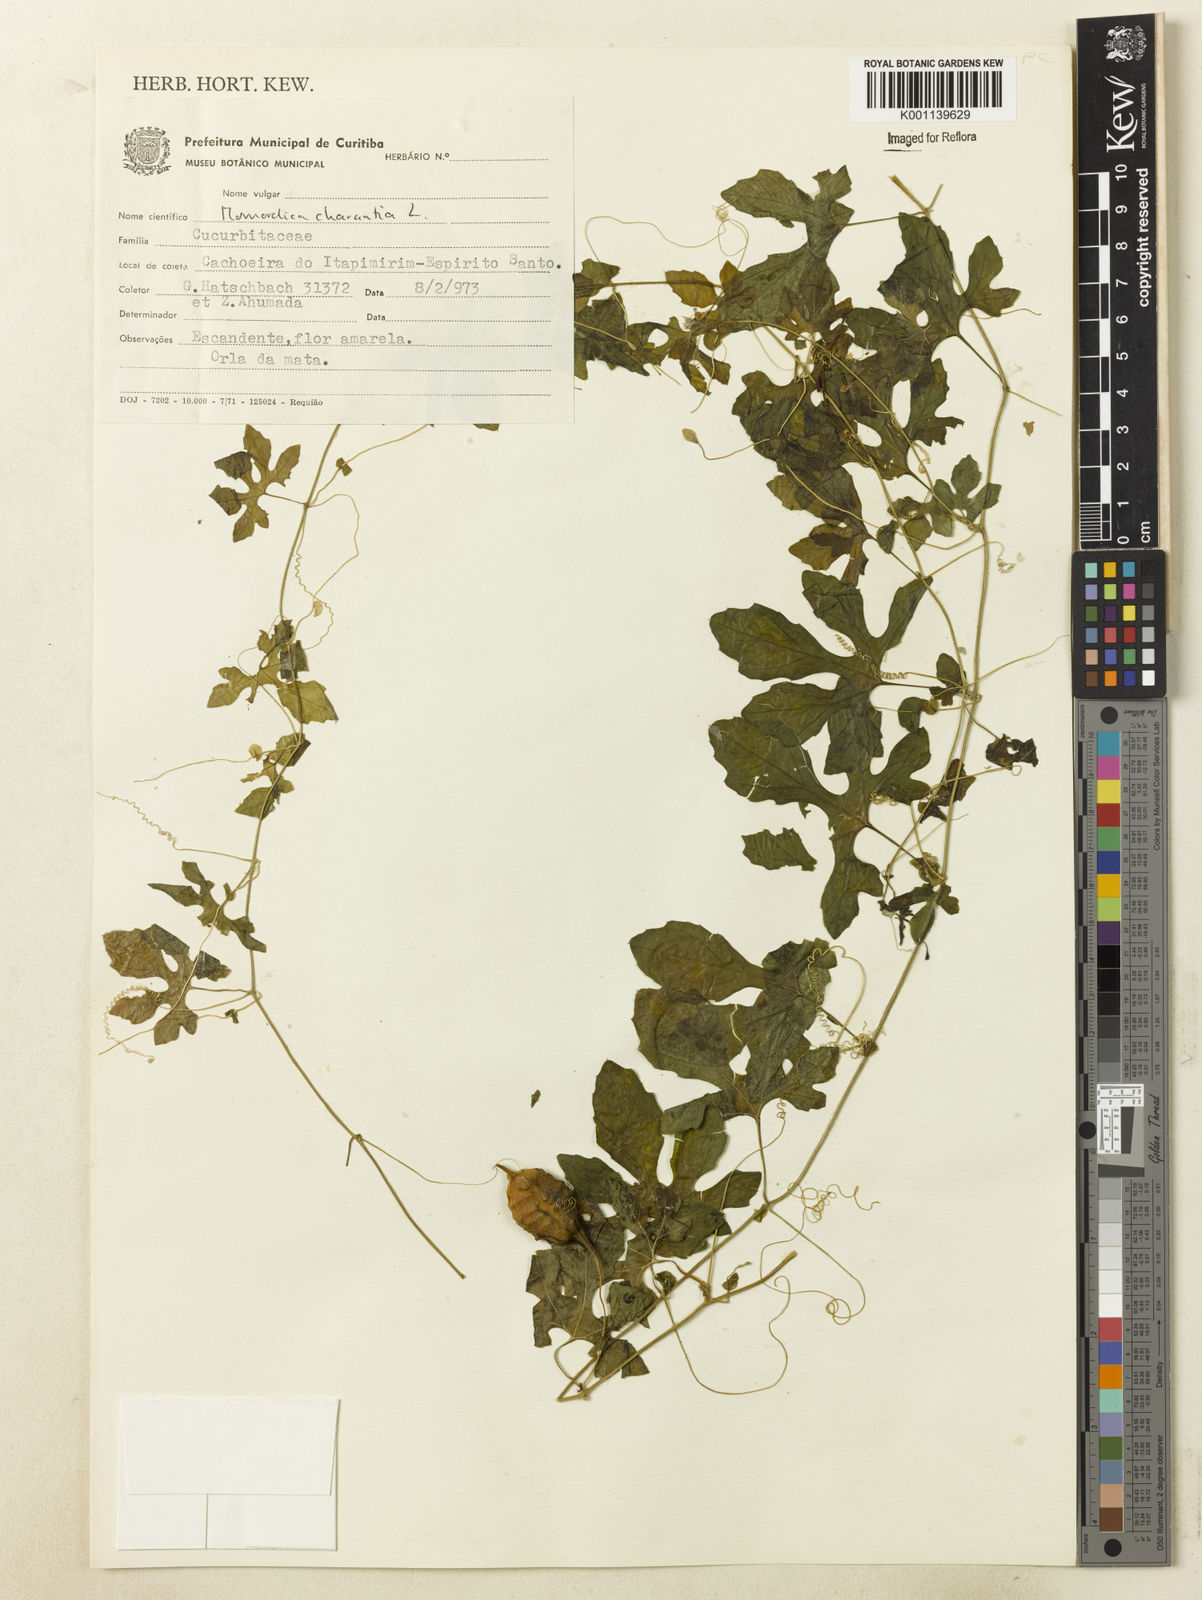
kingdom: Plantae
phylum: Tracheophyta
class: Magnoliopsida
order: Cucurbitales
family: Cucurbitaceae
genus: Momordica
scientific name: Momordica charantia
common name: Balsampear
